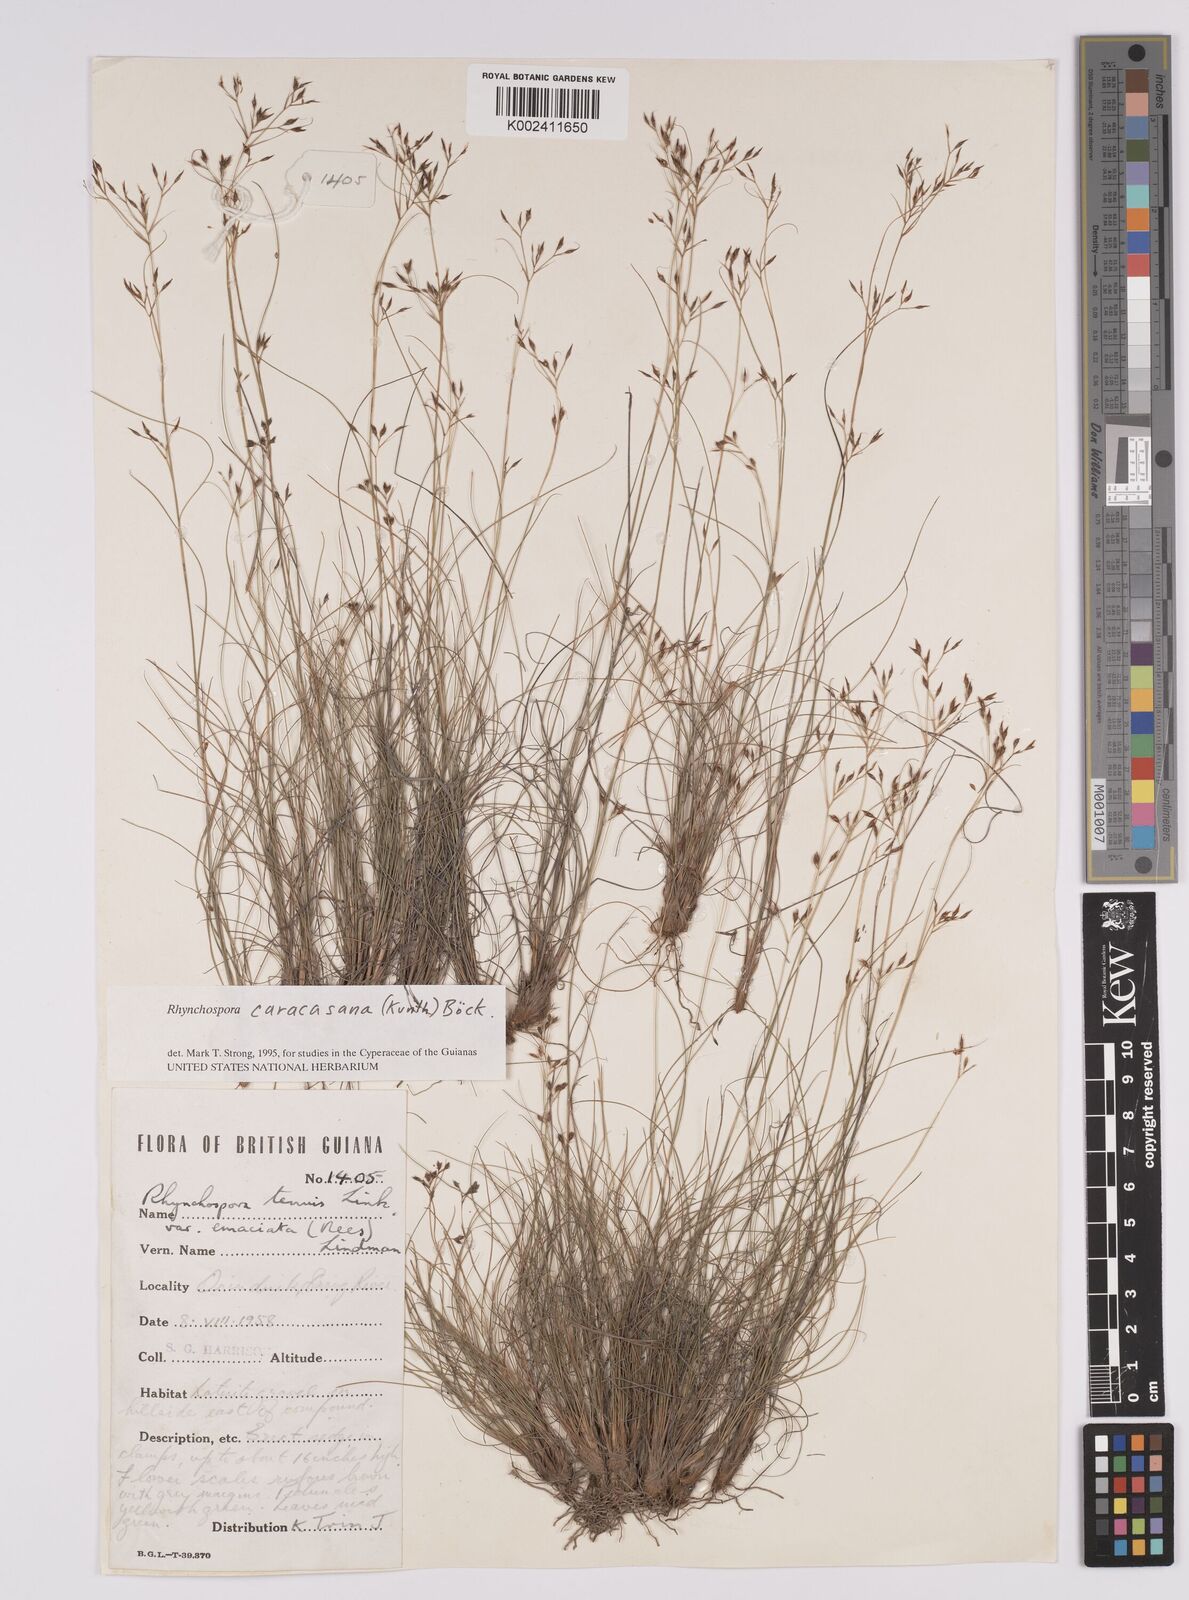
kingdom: Plantae
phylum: Tracheophyta
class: Liliopsida
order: Poales
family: Cyperaceae
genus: Rhynchospora
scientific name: Rhynchospora caracasana
